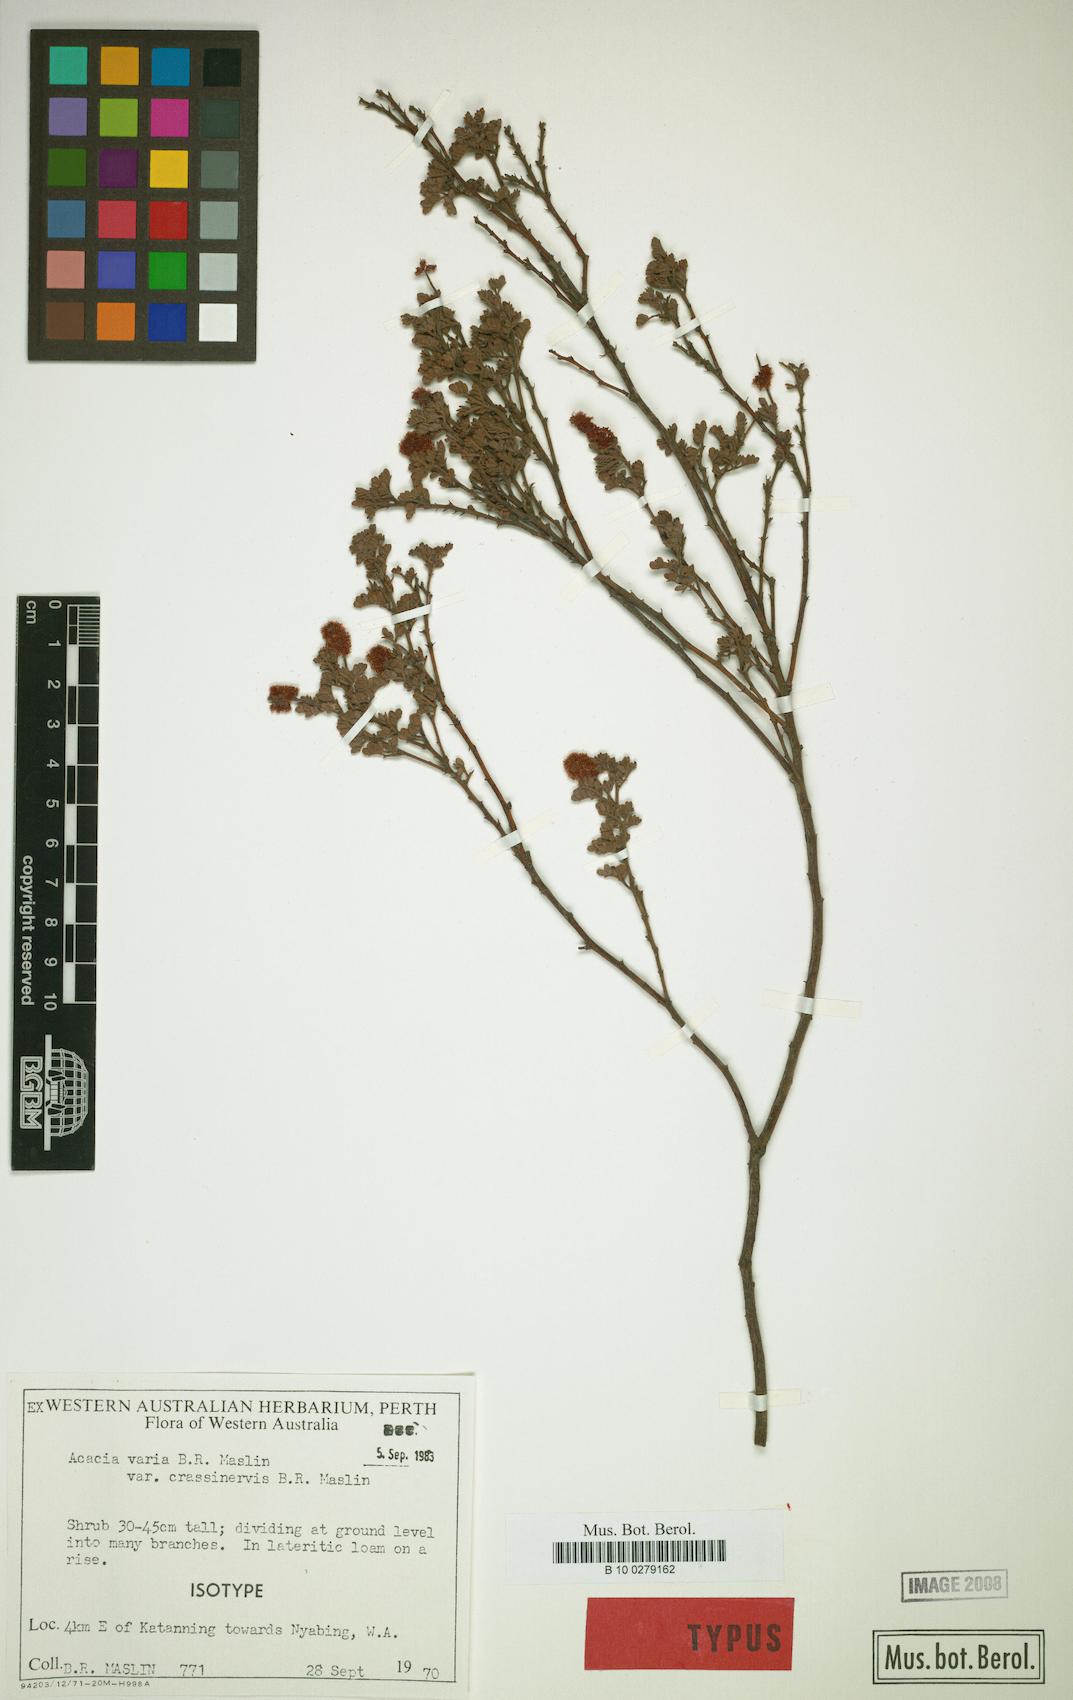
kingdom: Plantae
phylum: Tracheophyta
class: Magnoliopsida
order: Fabales
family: Fabaceae
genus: Acacia
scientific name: Acacia varia
